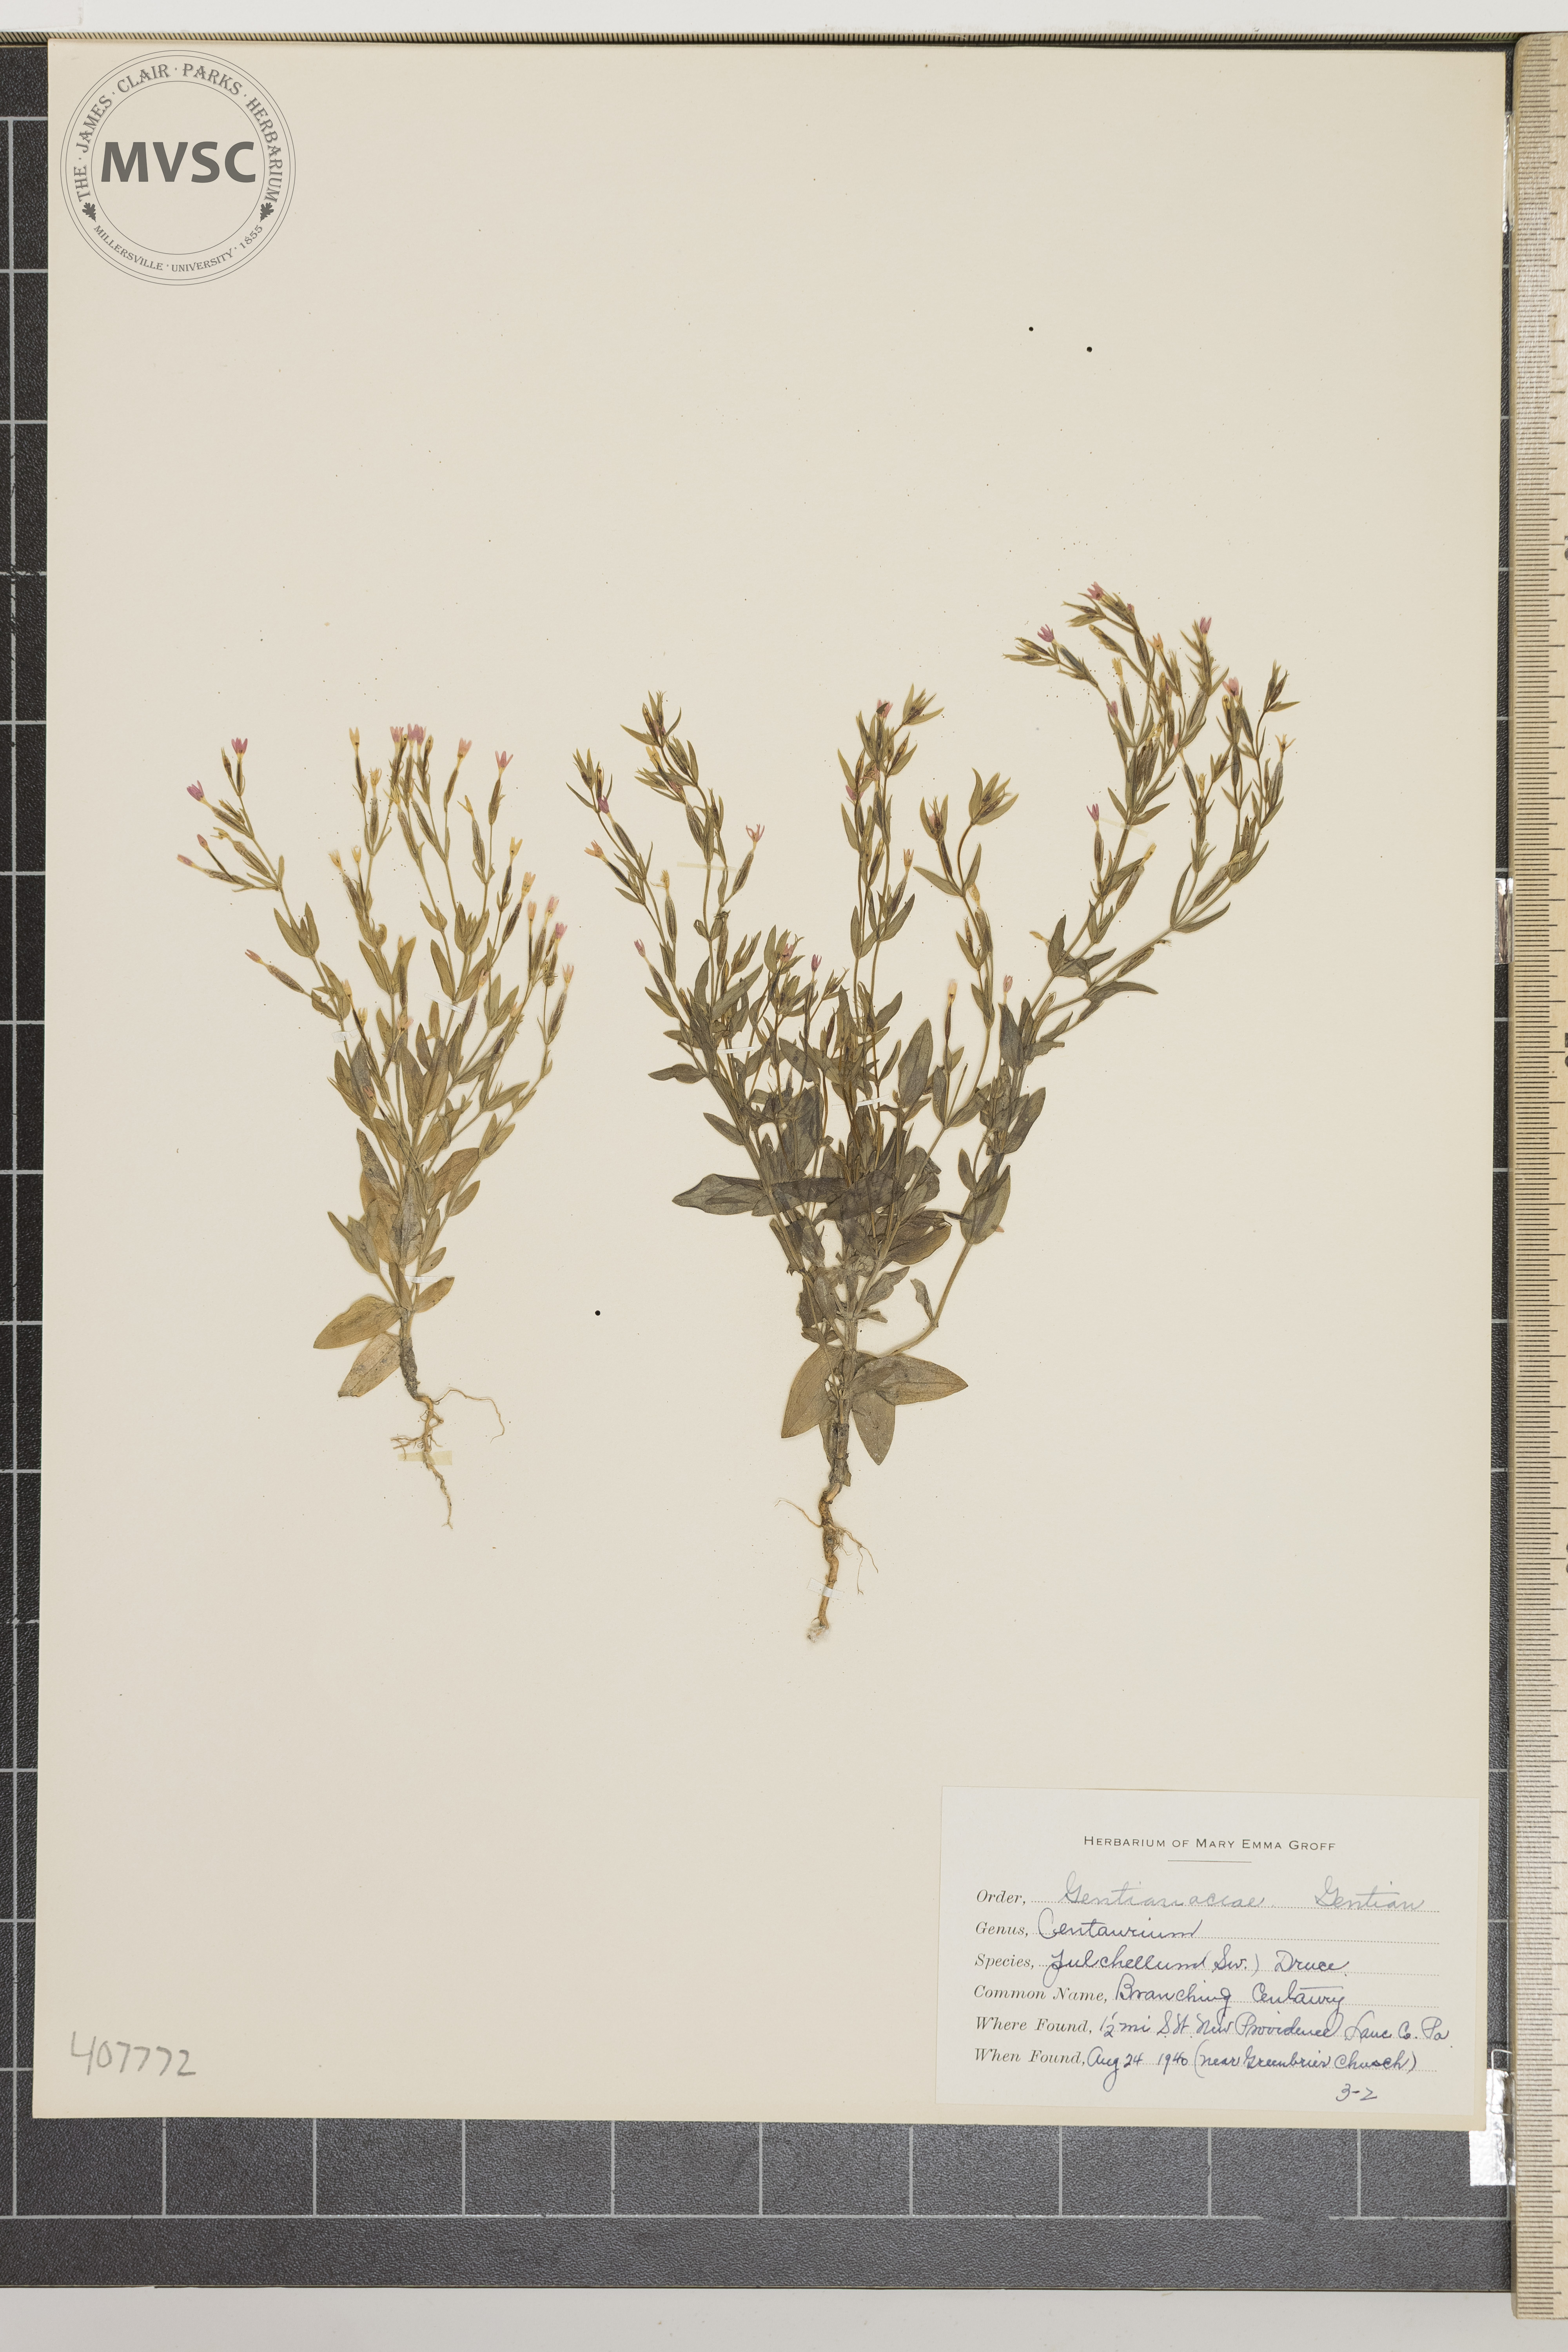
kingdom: Plantae
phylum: Tracheophyta
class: Magnoliopsida
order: Gentianales
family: Gentianaceae
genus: Centaurium
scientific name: Centaurium pulchellum
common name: Branching Centaury
